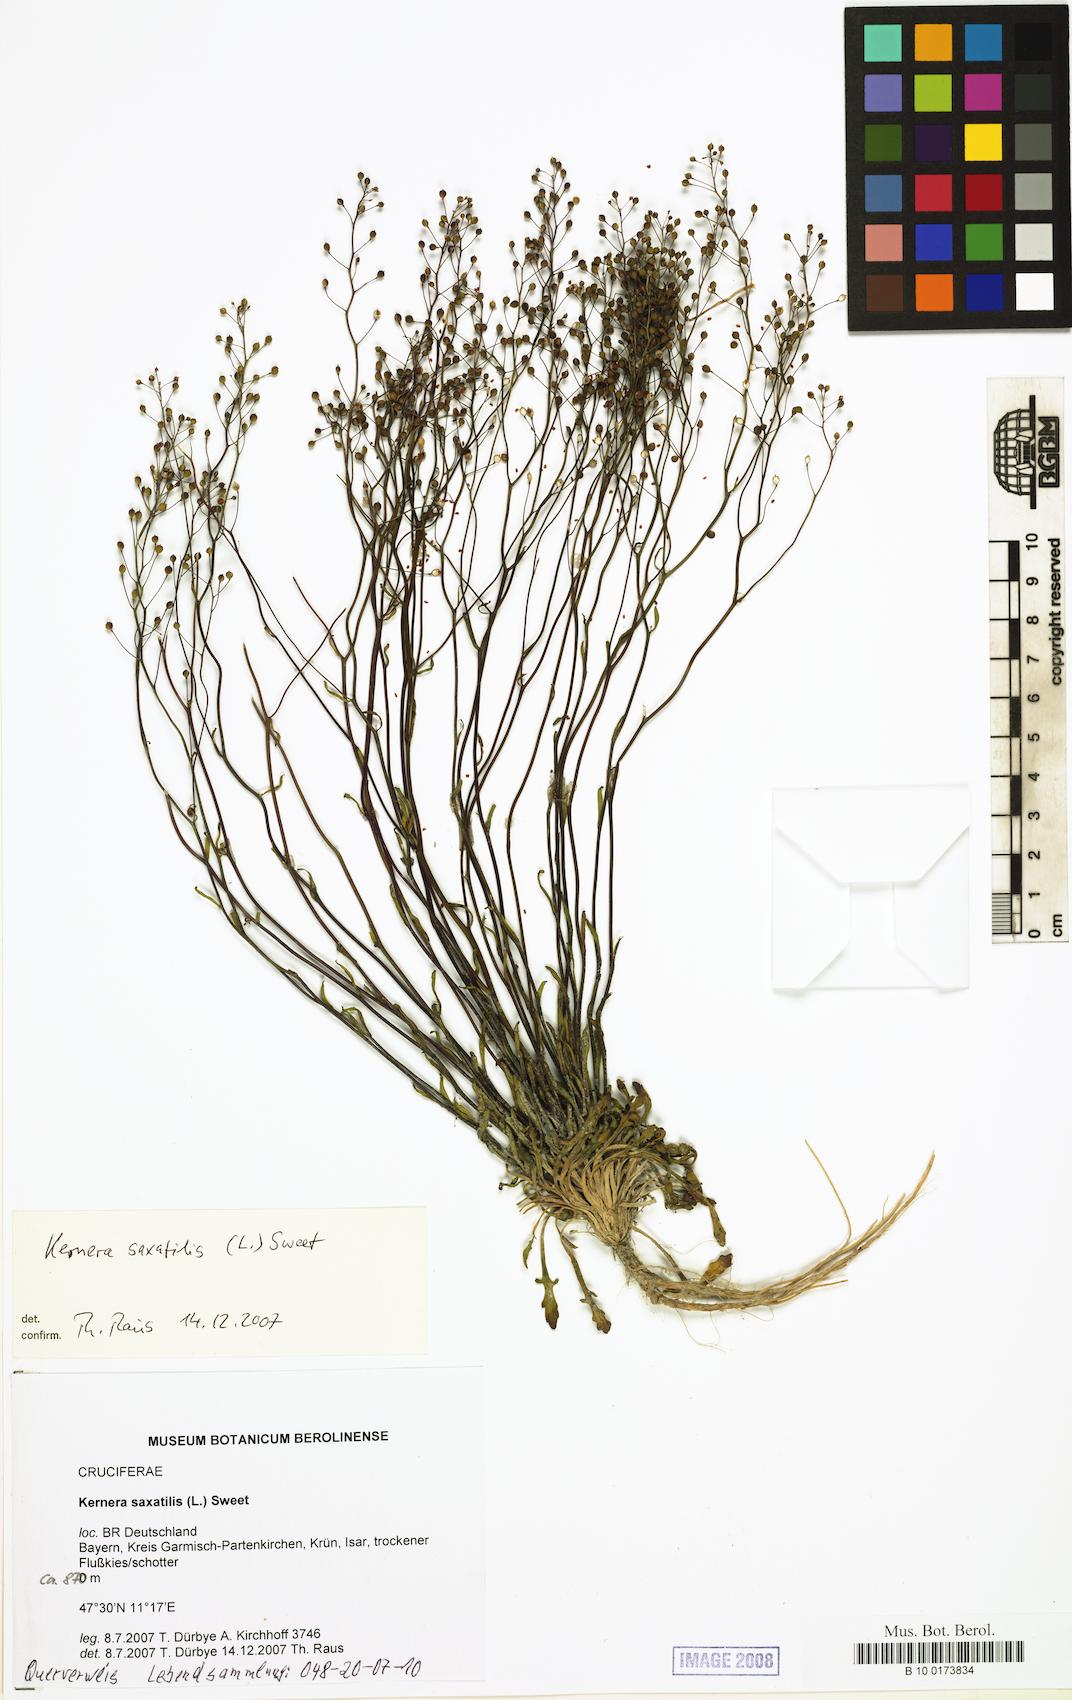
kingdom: Plantae
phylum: Tracheophyta
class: Magnoliopsida
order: Brassicales
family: Brassicaceae
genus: Kernera
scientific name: Kernera saxatilis
